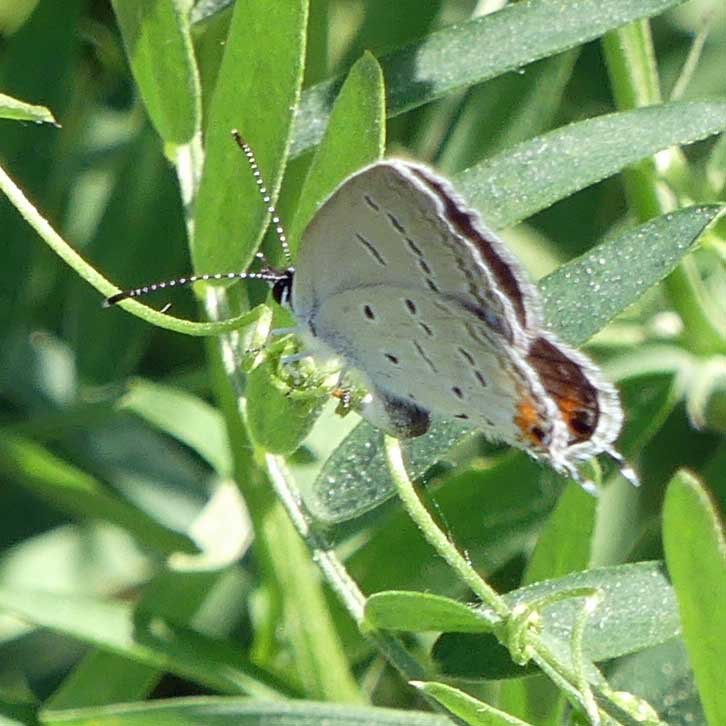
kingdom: Animalia
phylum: Arthropoda
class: Insecta
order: Lepidoptera
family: Lycaenidae
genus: Elkalyce
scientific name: Elkalyce comyntas
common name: Eastern Tailed-Blue
